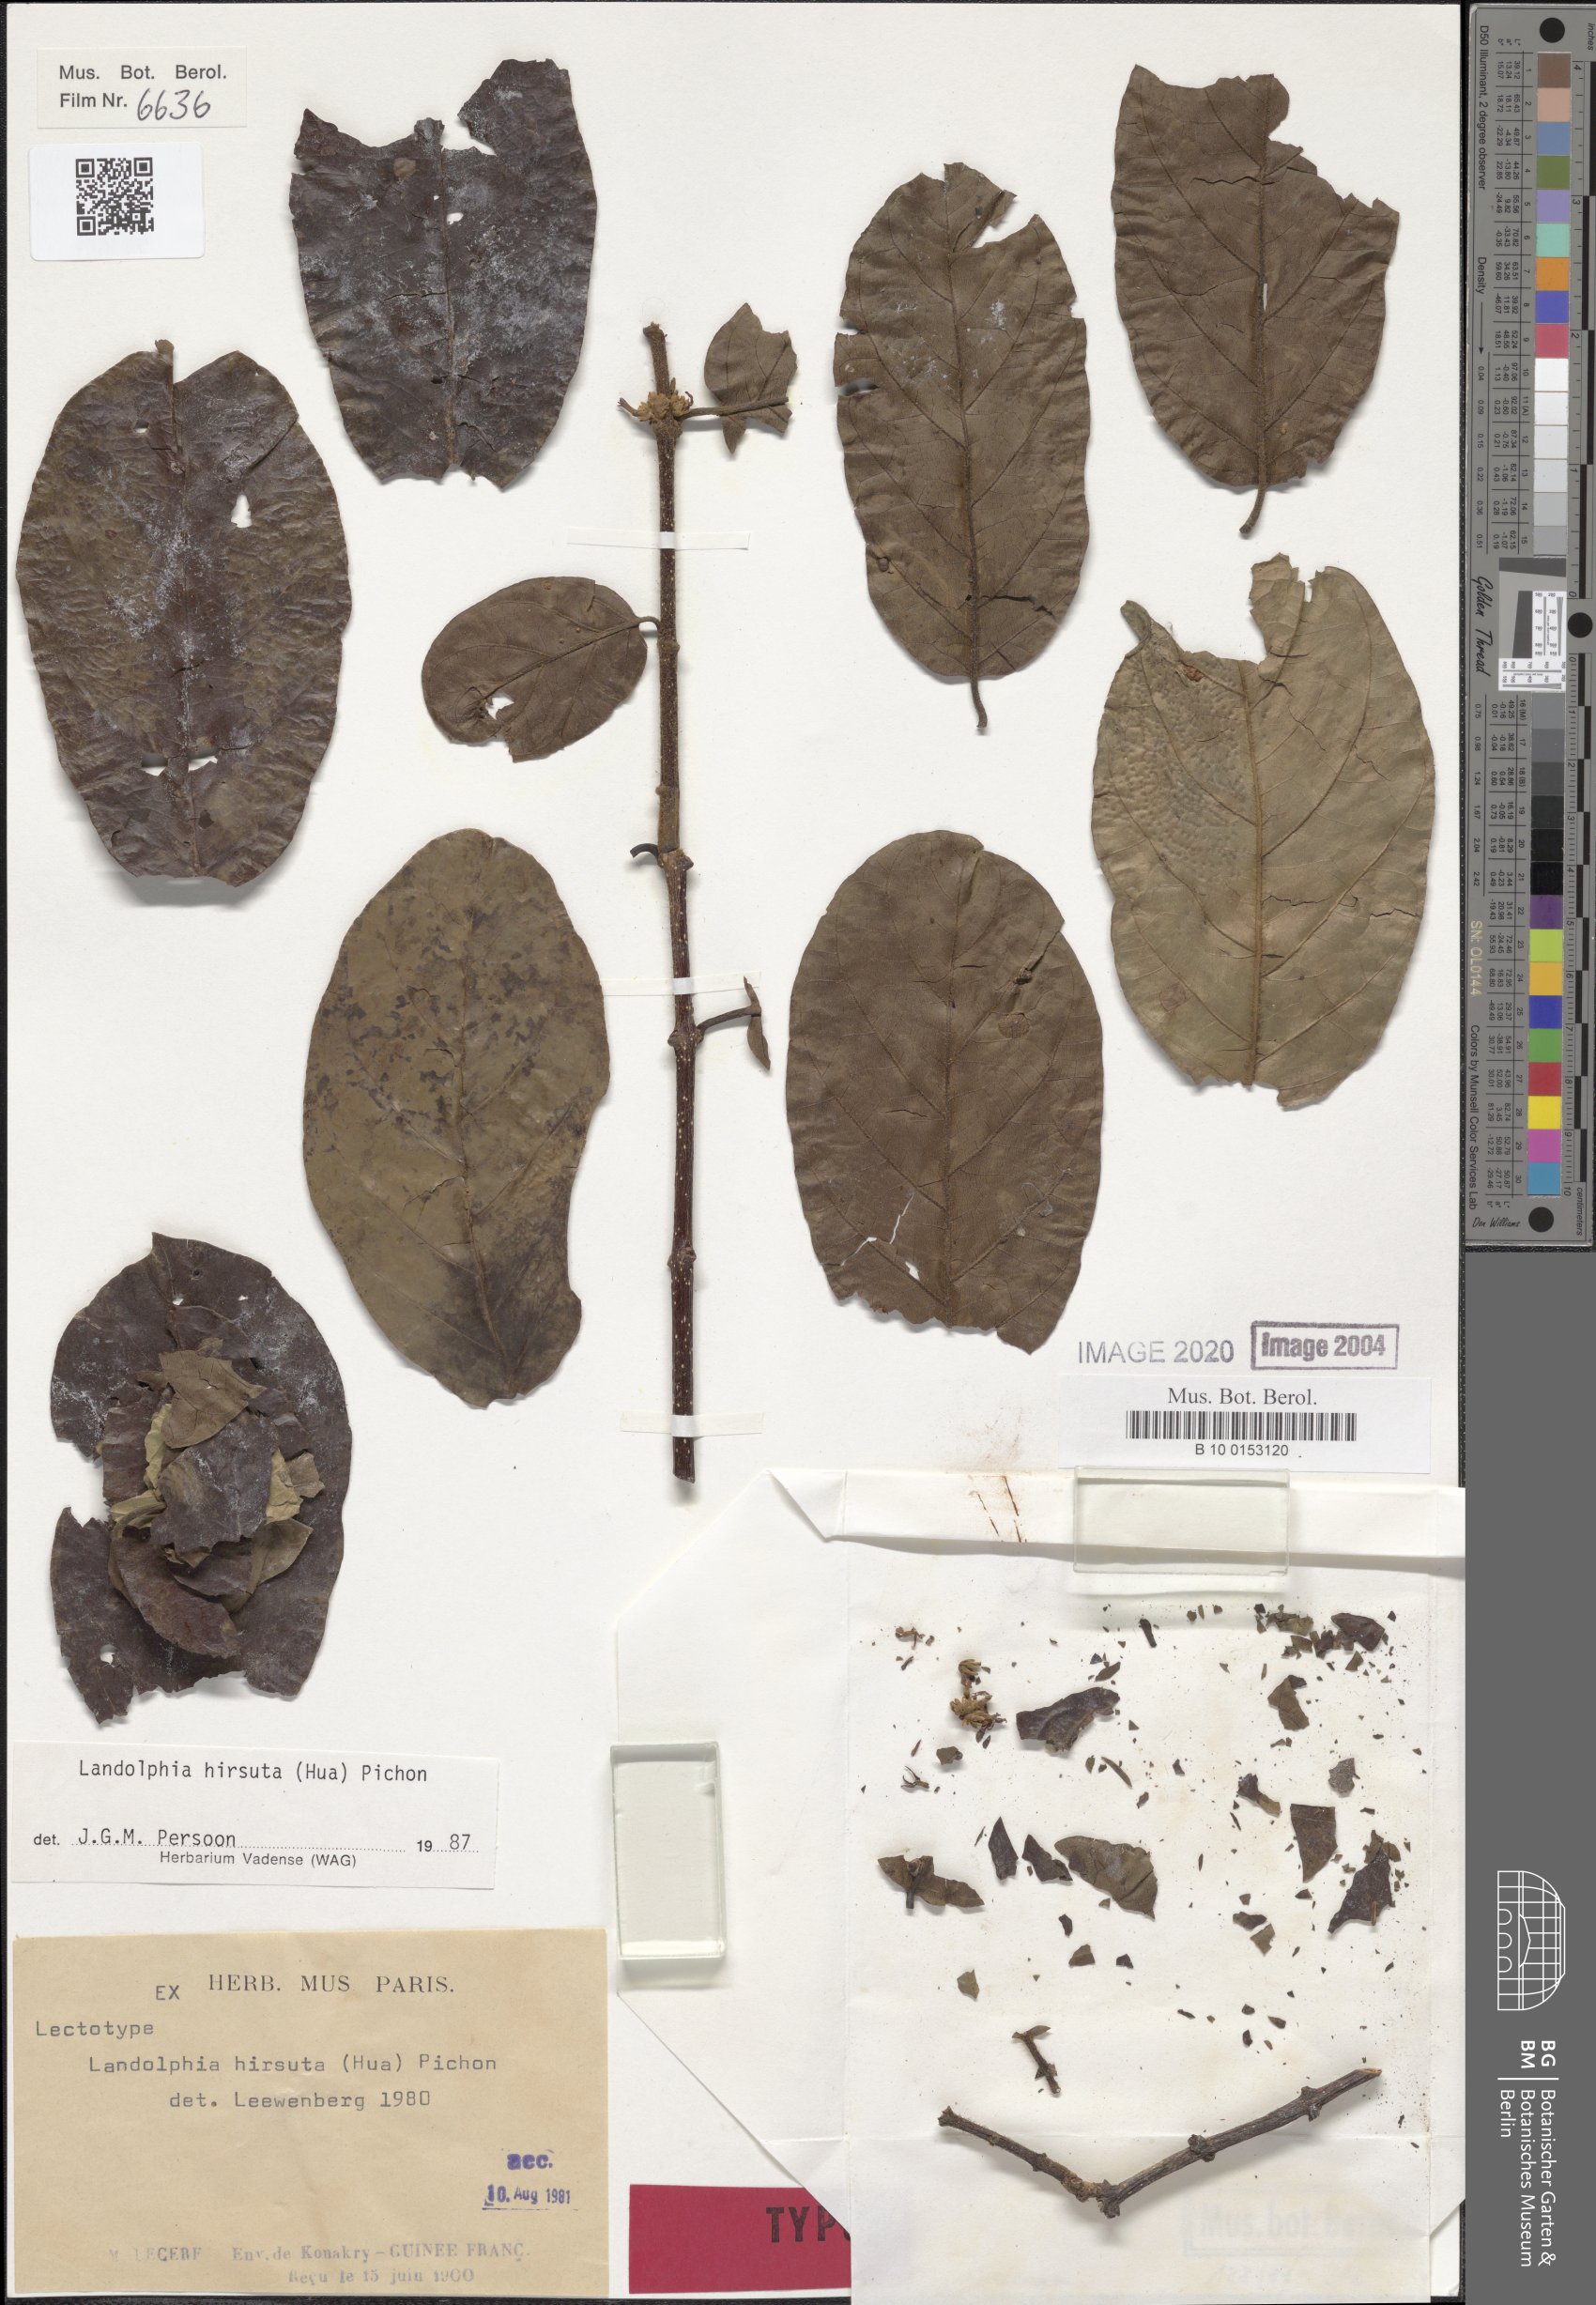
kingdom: Plantae
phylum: Tracheophyta
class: Magnoliopsida
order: Gentianales
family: Apocynaceae
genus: Landolphia
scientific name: Landolphia hirsuta
